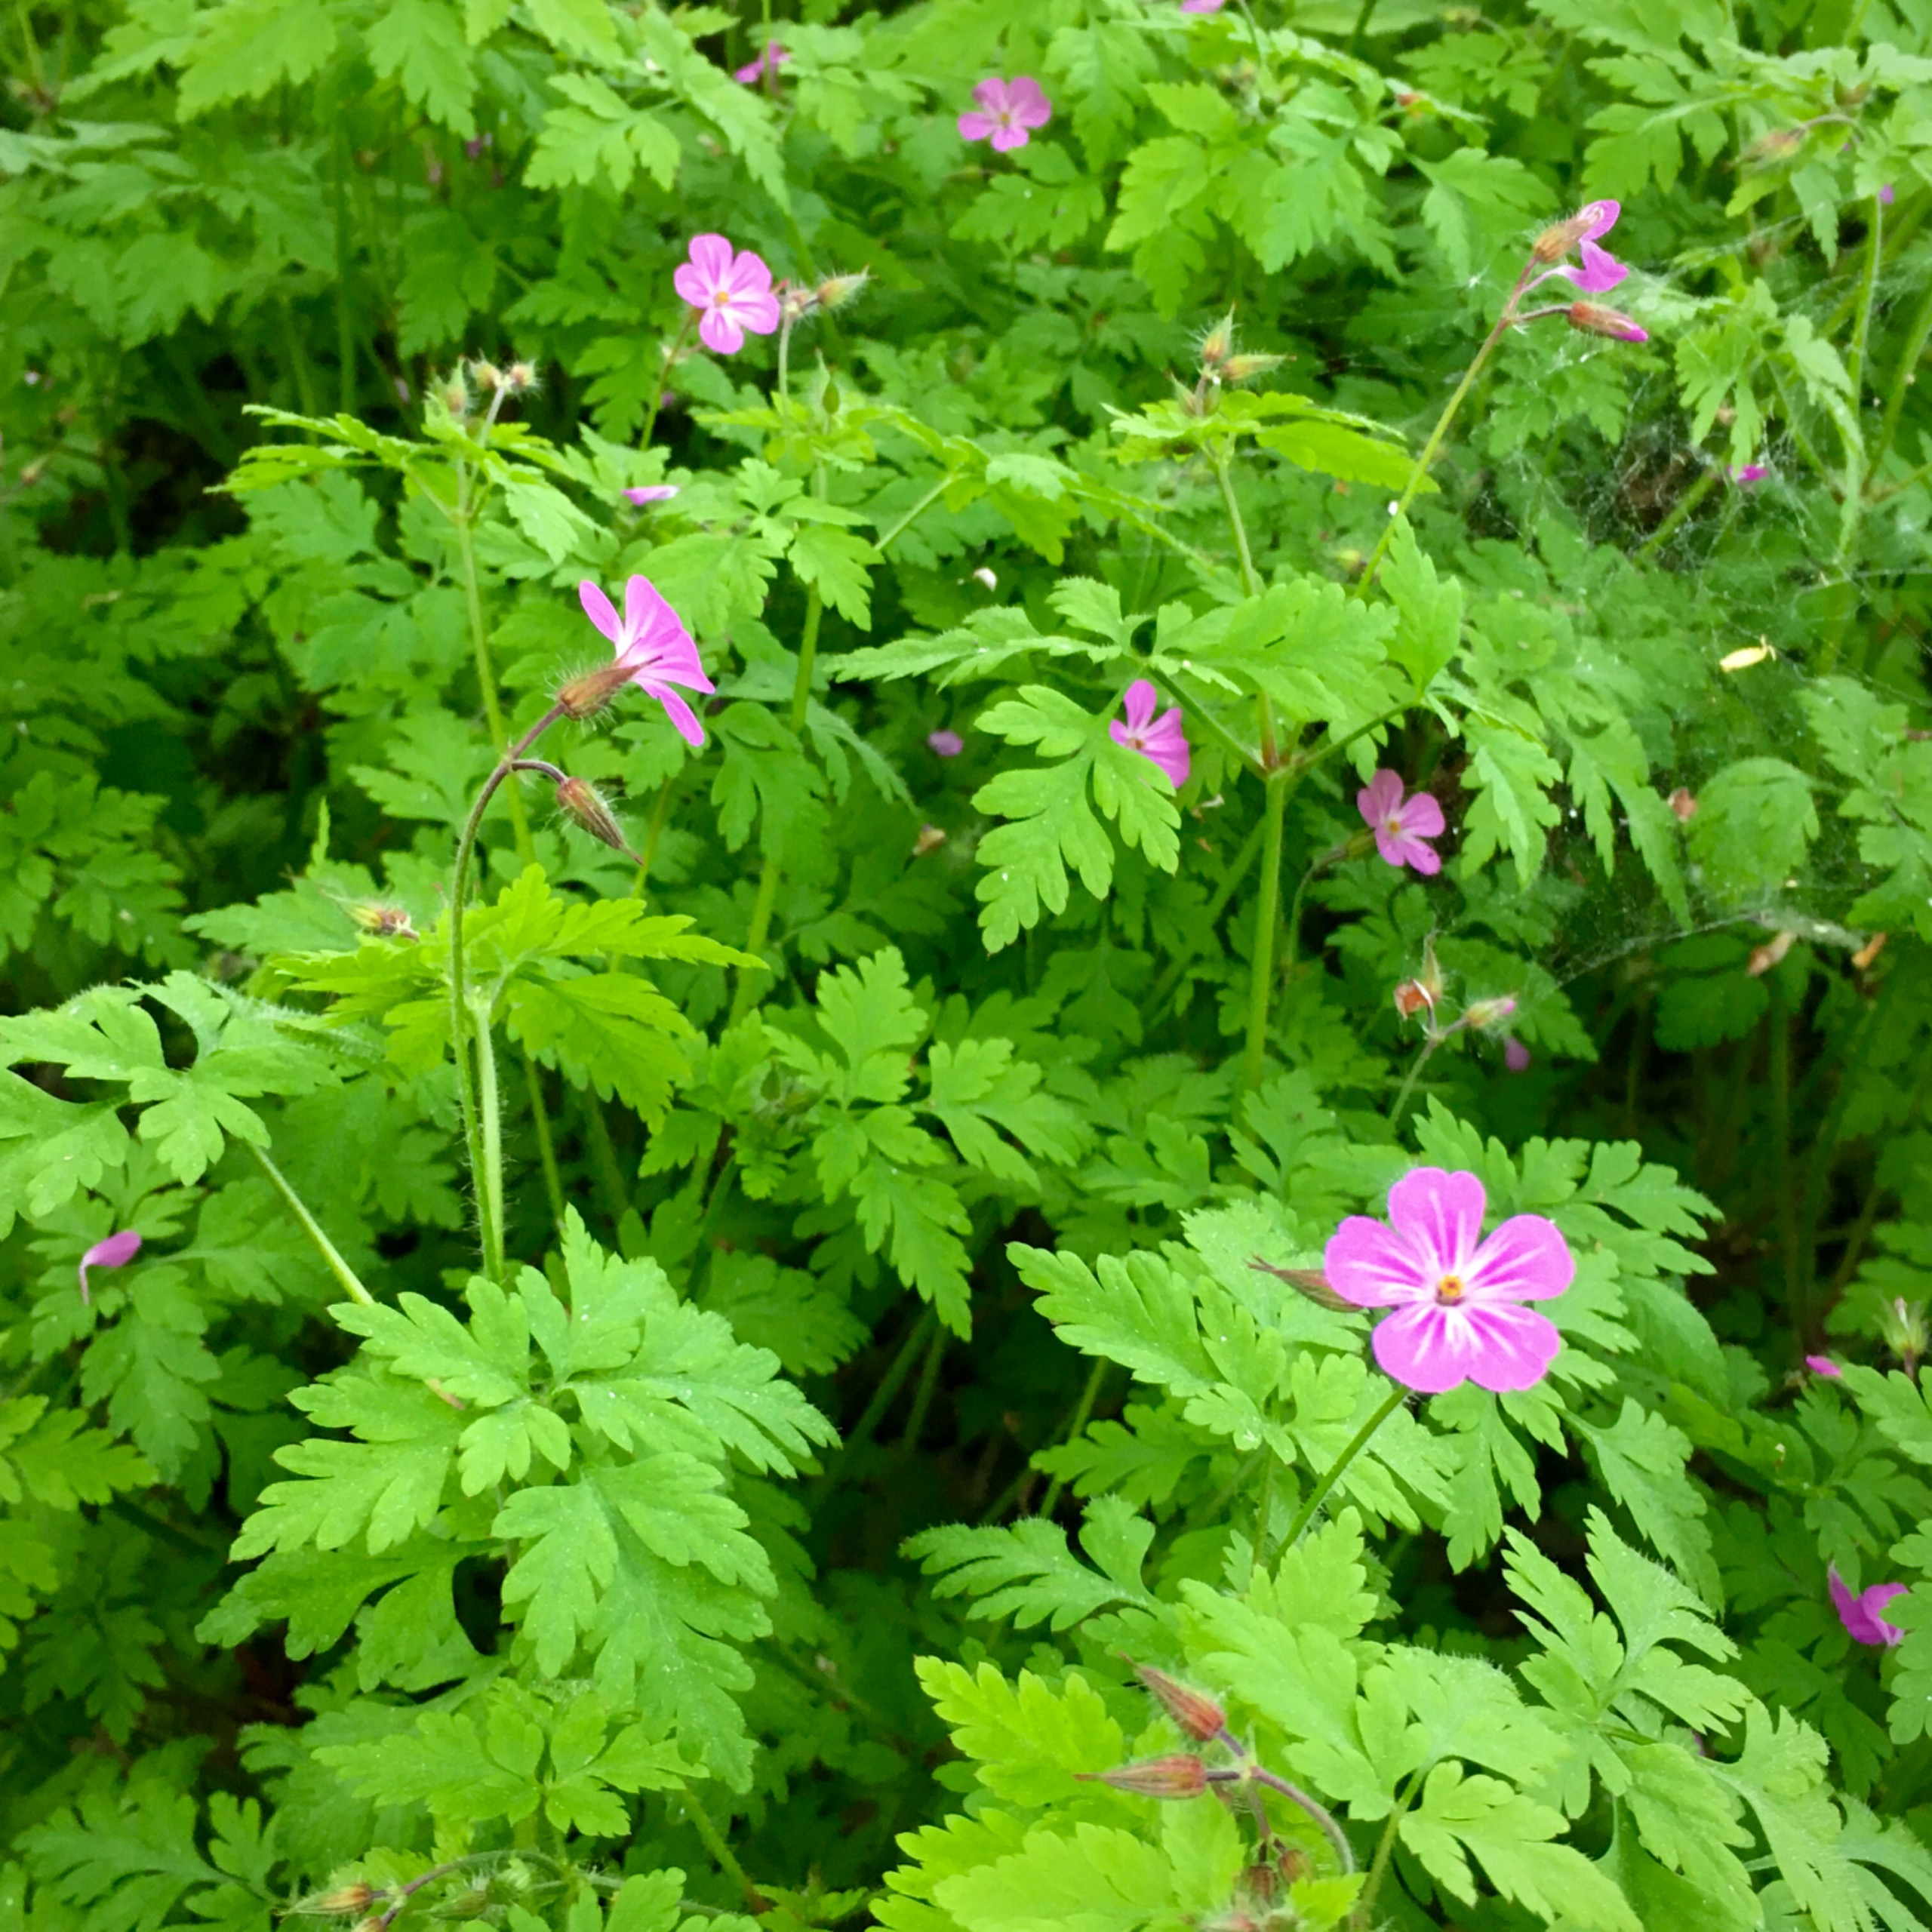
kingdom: Plantae
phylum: Tracheophyta
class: Magnoliopsida
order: Geraniales
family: Geraniaceae
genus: Geranium
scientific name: Geranium robertianum
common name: Stinkende storkenæb
